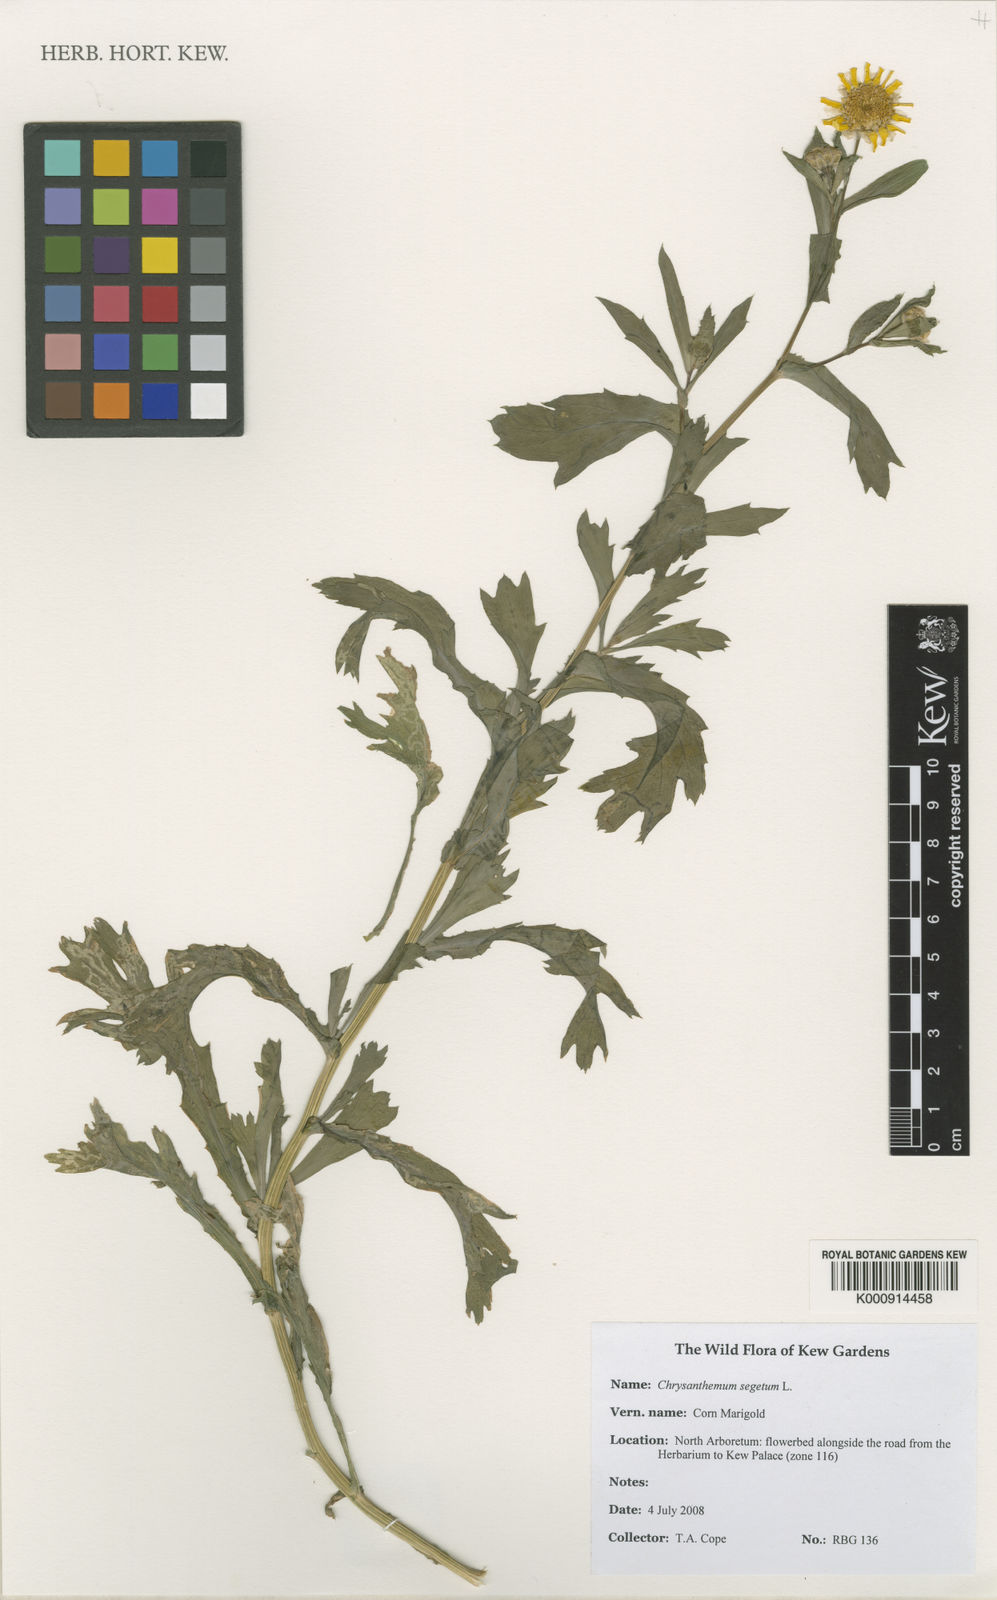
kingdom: Plantae
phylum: Tracheophyta
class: Magnoliopsida
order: Asterales
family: Asteraceae
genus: Glebionis
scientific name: Glebionis segetum
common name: Corndaisy
